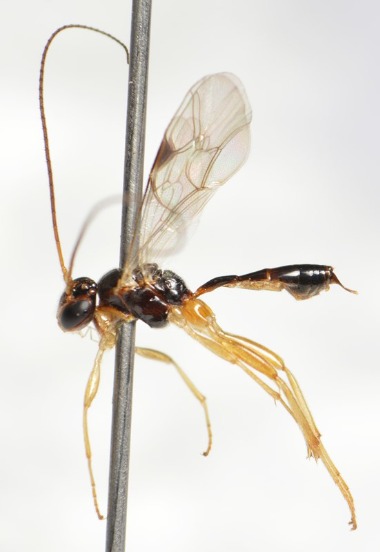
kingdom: Animalia
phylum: Arthropoda
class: Insecta
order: Hymenoptera
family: Ichneumonidae
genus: Mesochorus
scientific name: Mesochorus scandinavicus
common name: Skandinavisk diamantvinge
